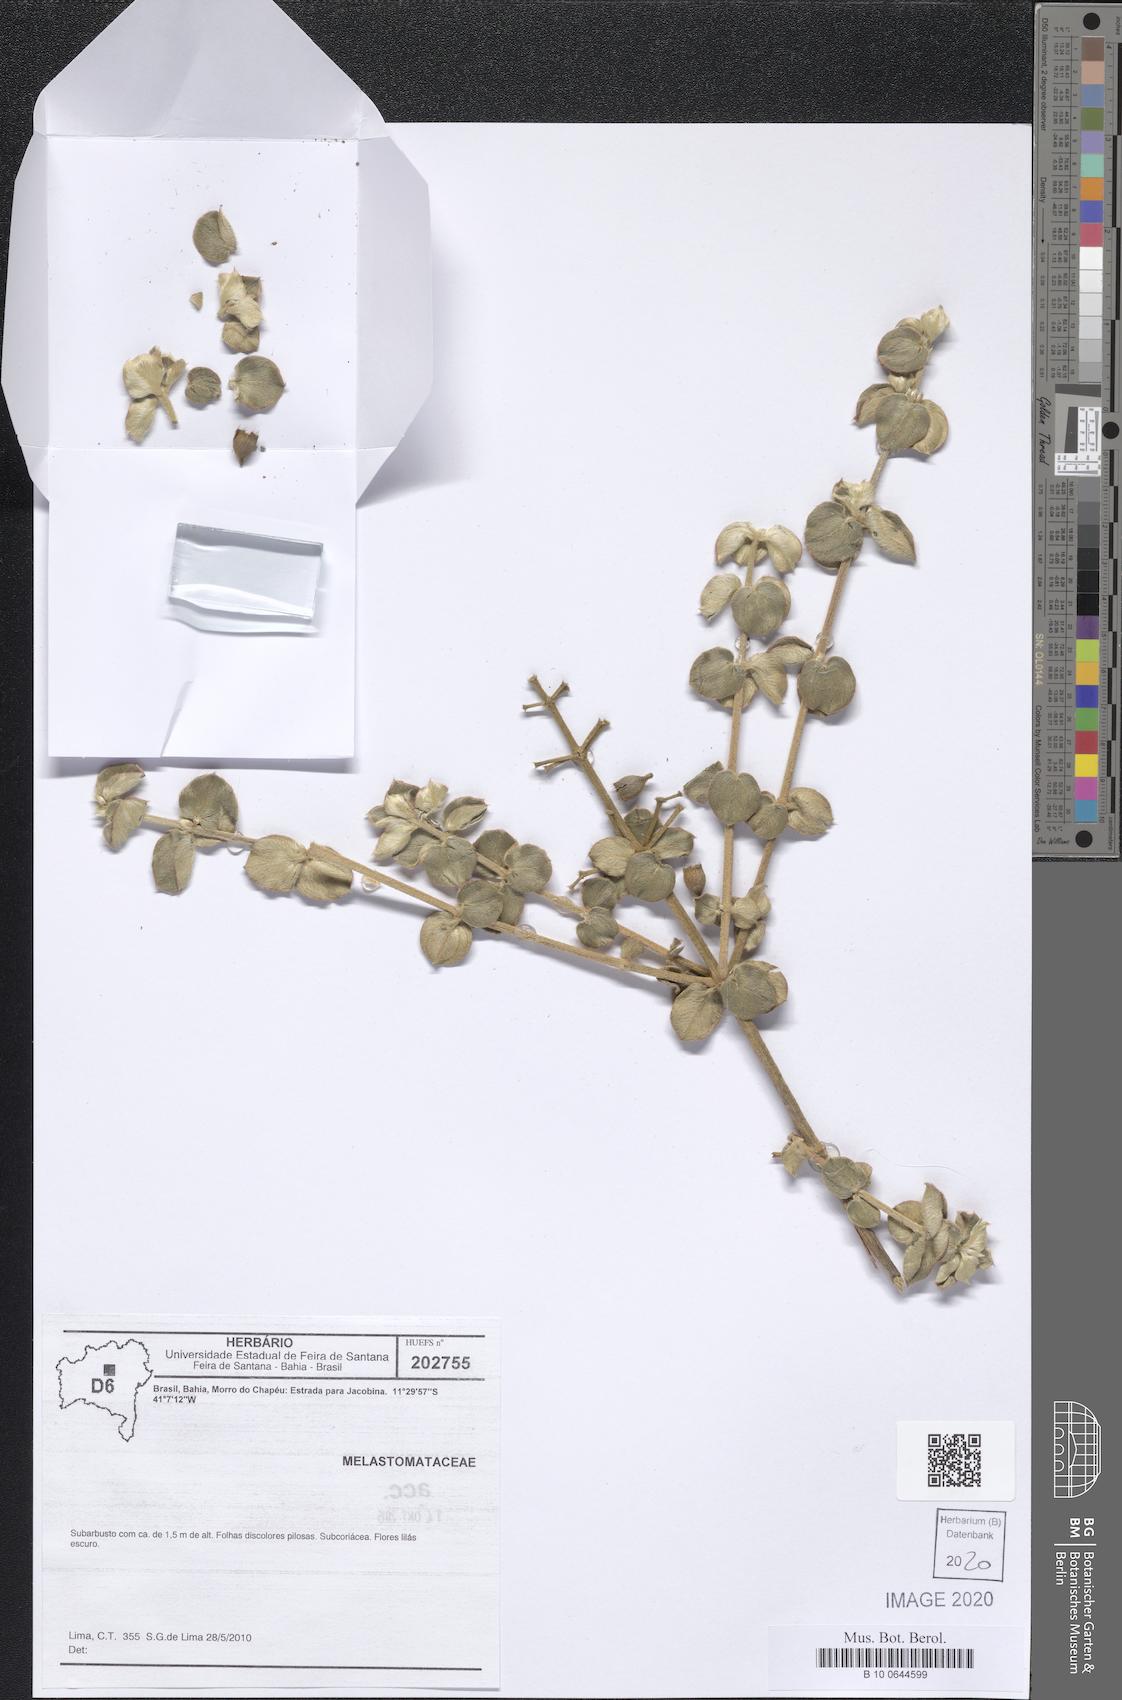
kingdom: Plantae
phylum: Tracheophyta
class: Magnoliopsida
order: Myrtales
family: Melastomataceae
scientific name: Melastomataceae
